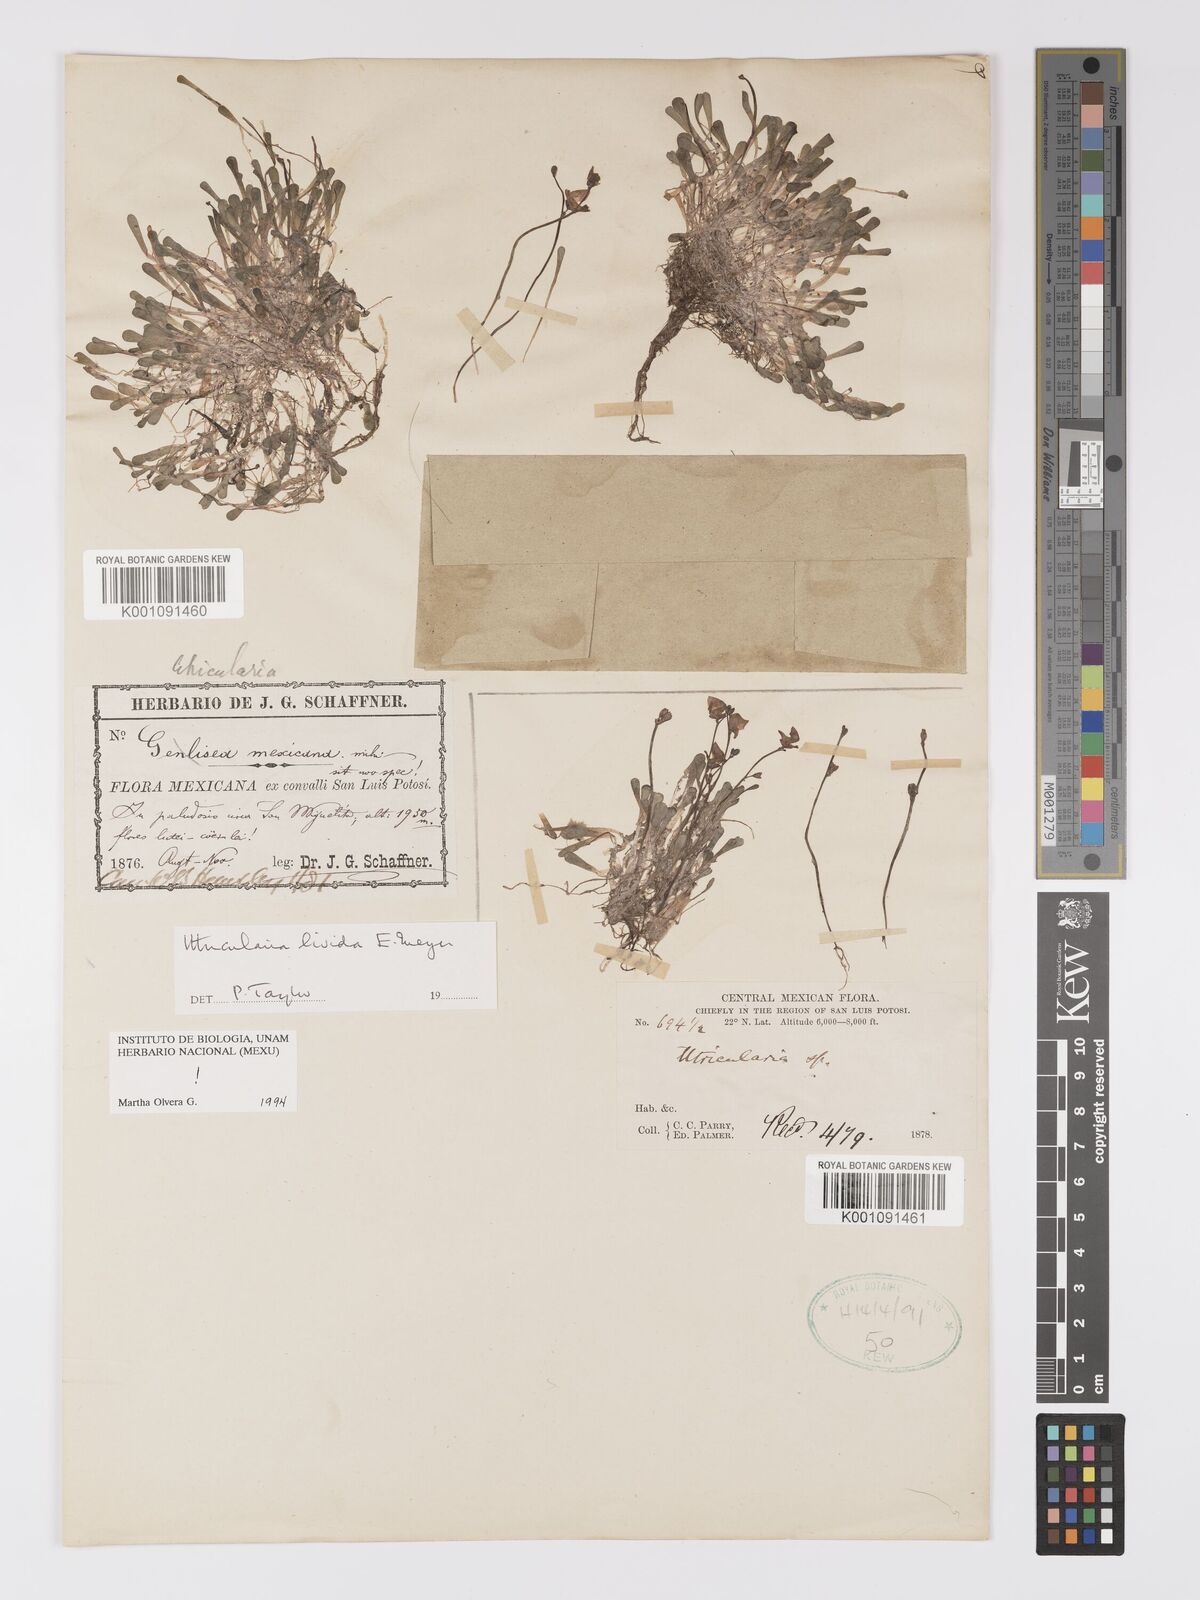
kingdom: Plantae
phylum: Tracheophyta
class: Magnoliopsida
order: Lamiales
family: Lentibulariaceae
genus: Utricularia
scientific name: Utricularia livida
